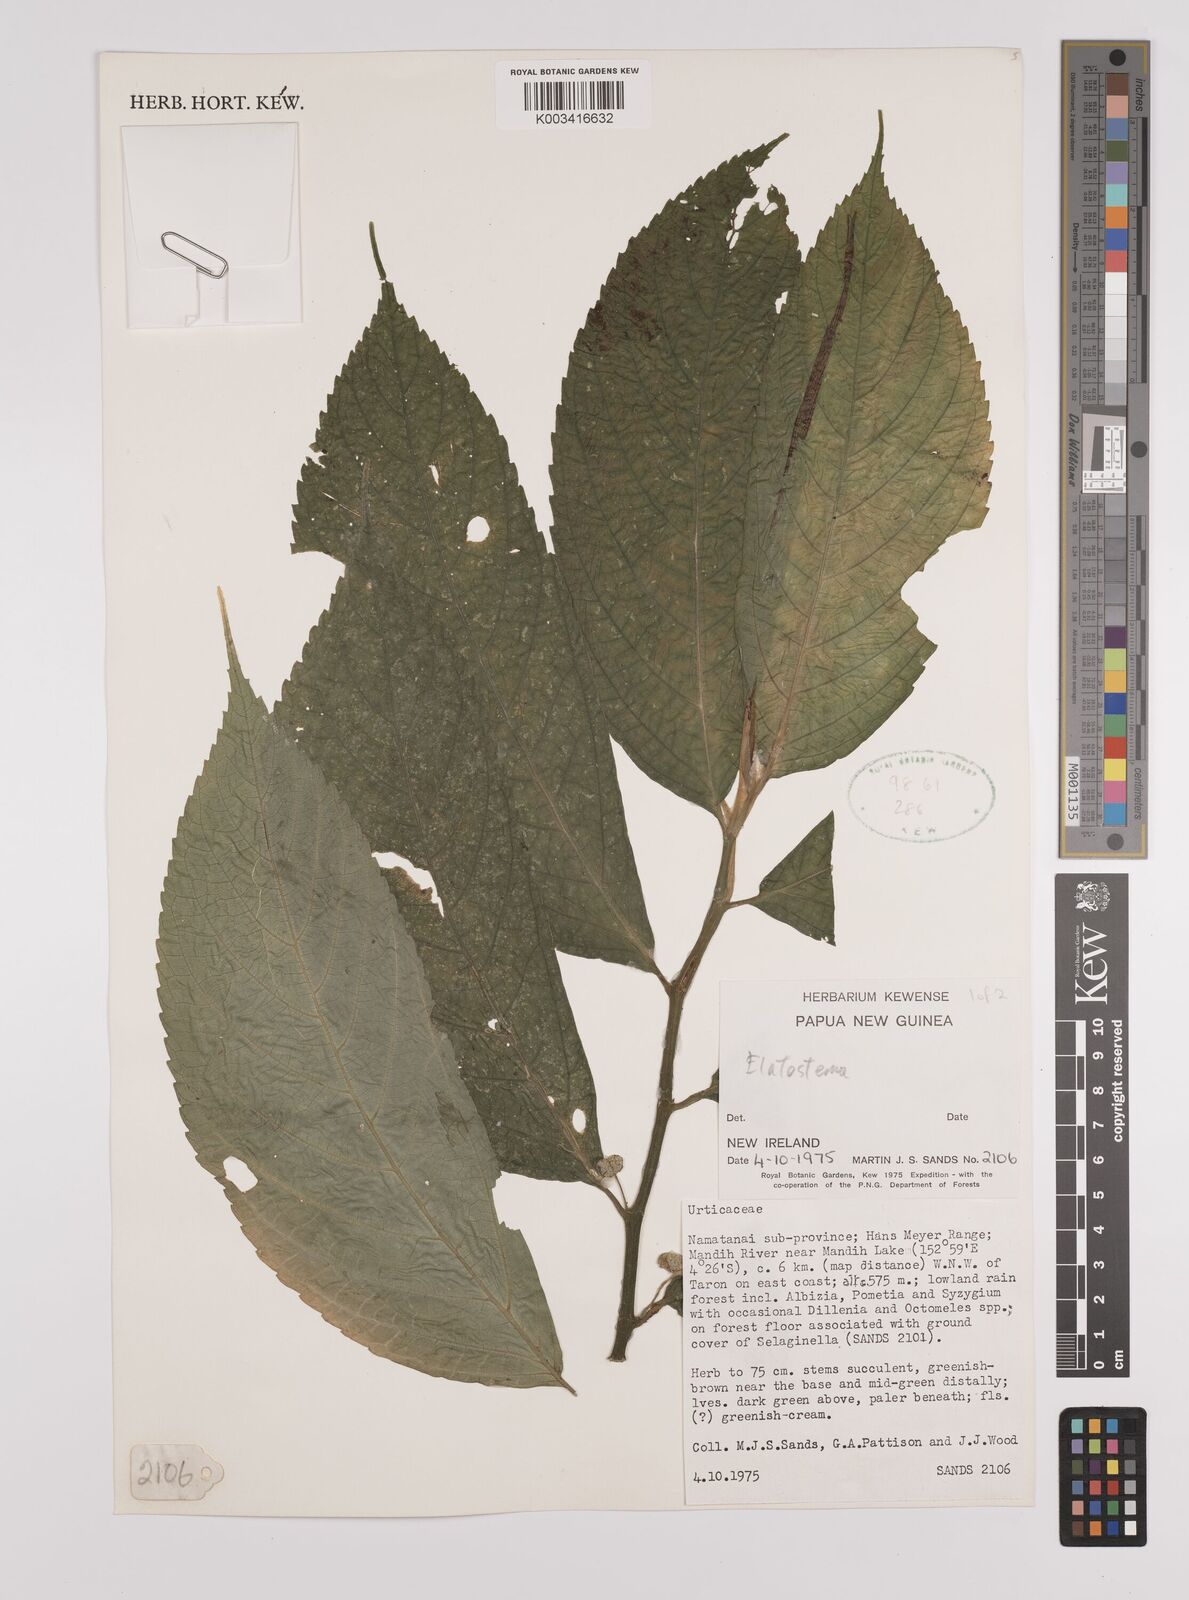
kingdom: Plantae
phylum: Tracheophyta
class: Magnoliopsida
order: Rosales
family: Urticaceae
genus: Elatostema
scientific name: Elatostema
